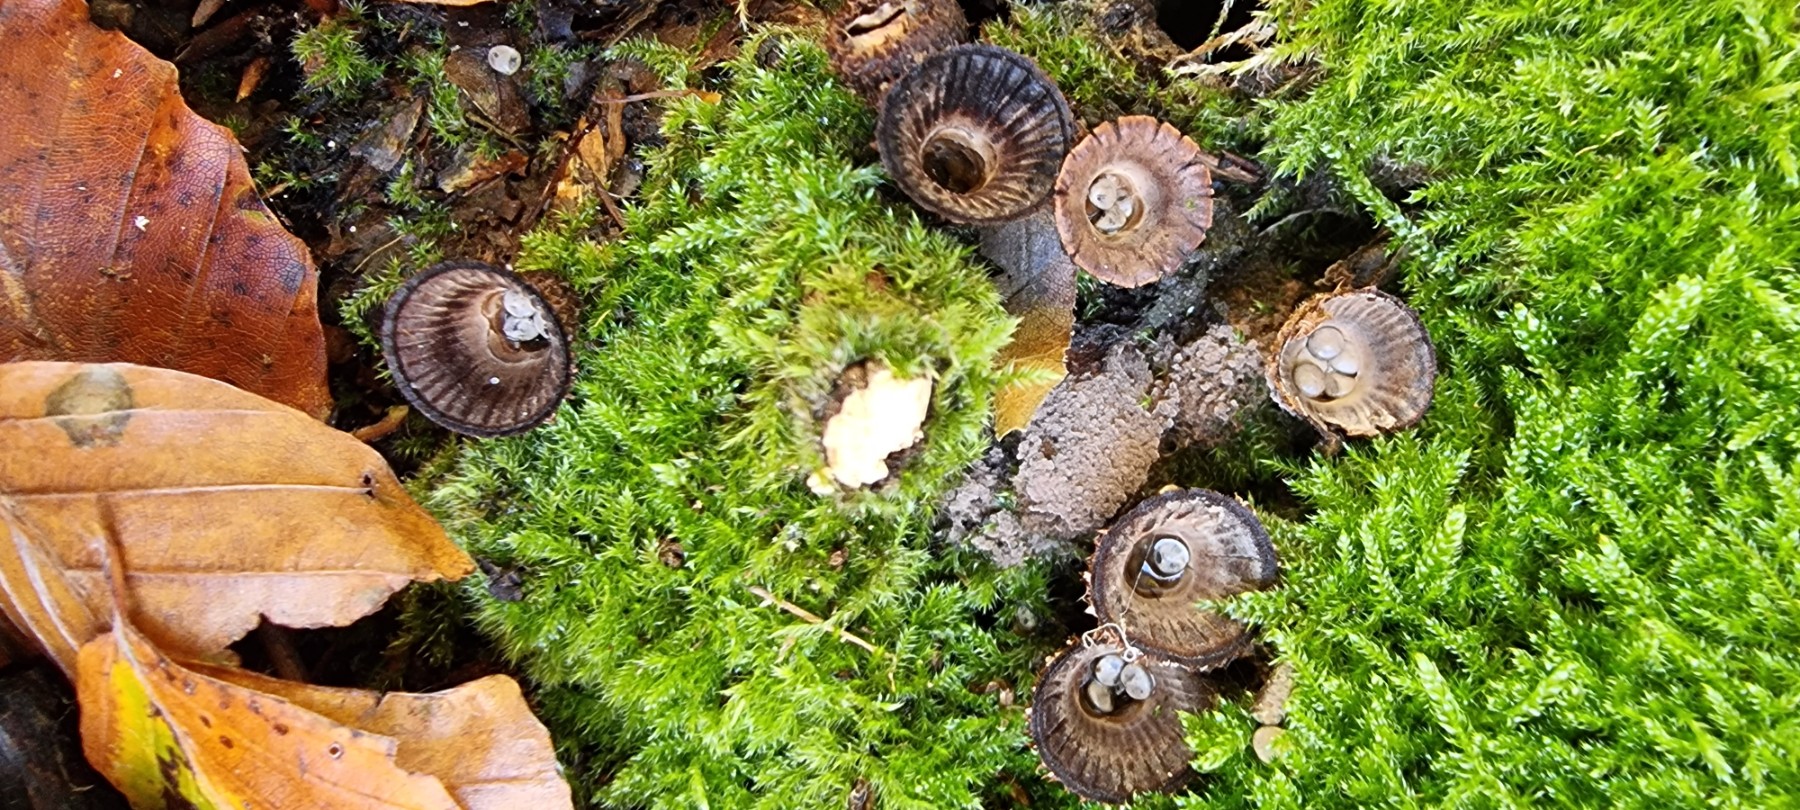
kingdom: Fungi
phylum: Basidiomycota
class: Agaricomycetes
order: Agaricales
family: Agaricaceae
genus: Cyathus
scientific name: Cyathus striatus
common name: stribet redesvamp
